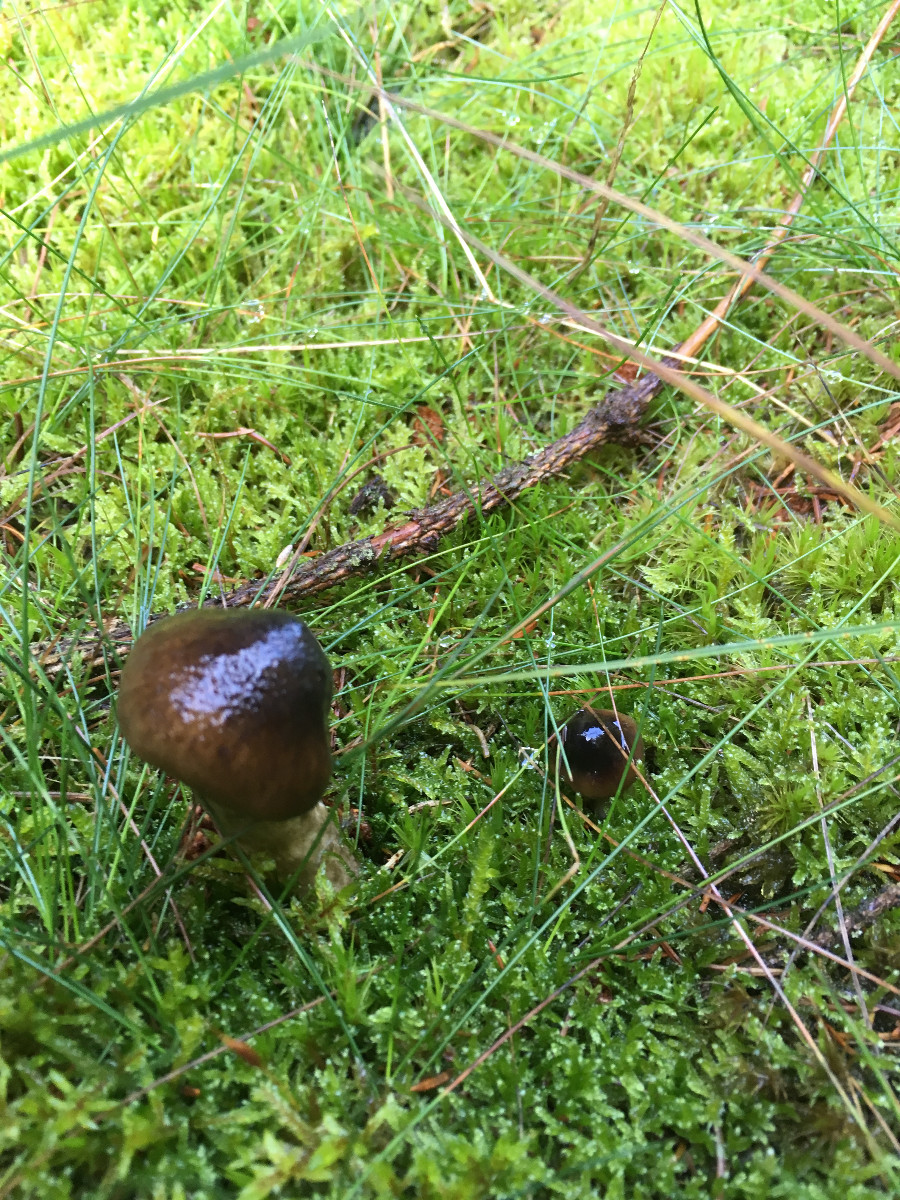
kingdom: Fungi
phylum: Basidiomycota
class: Agaricomycetes
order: Agaricales
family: Hygrophoraceae
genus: Hygrophorus
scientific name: Hygrophorus olivaceoalbus
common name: hvidbrun sneglehat
